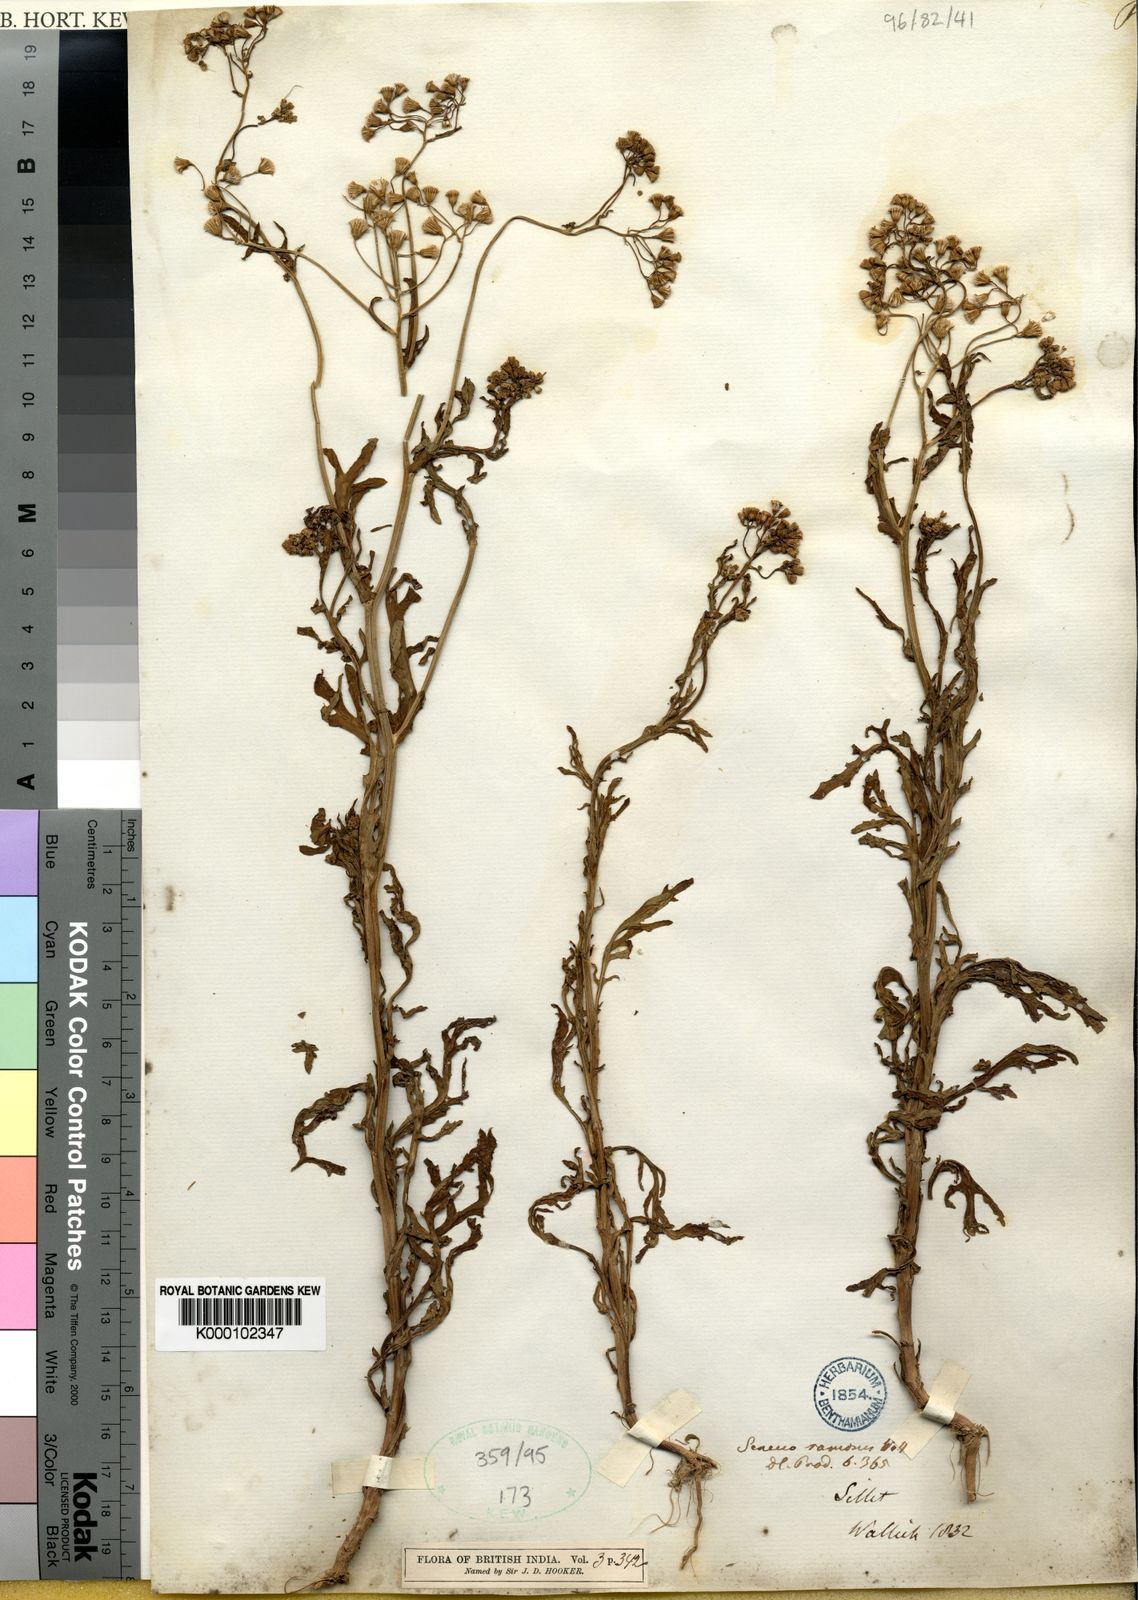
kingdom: Plantae
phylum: Tracheophyta
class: Magnoliopsida
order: Asterales
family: Asteraceae
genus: Senecio
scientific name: Senecio ramosus
